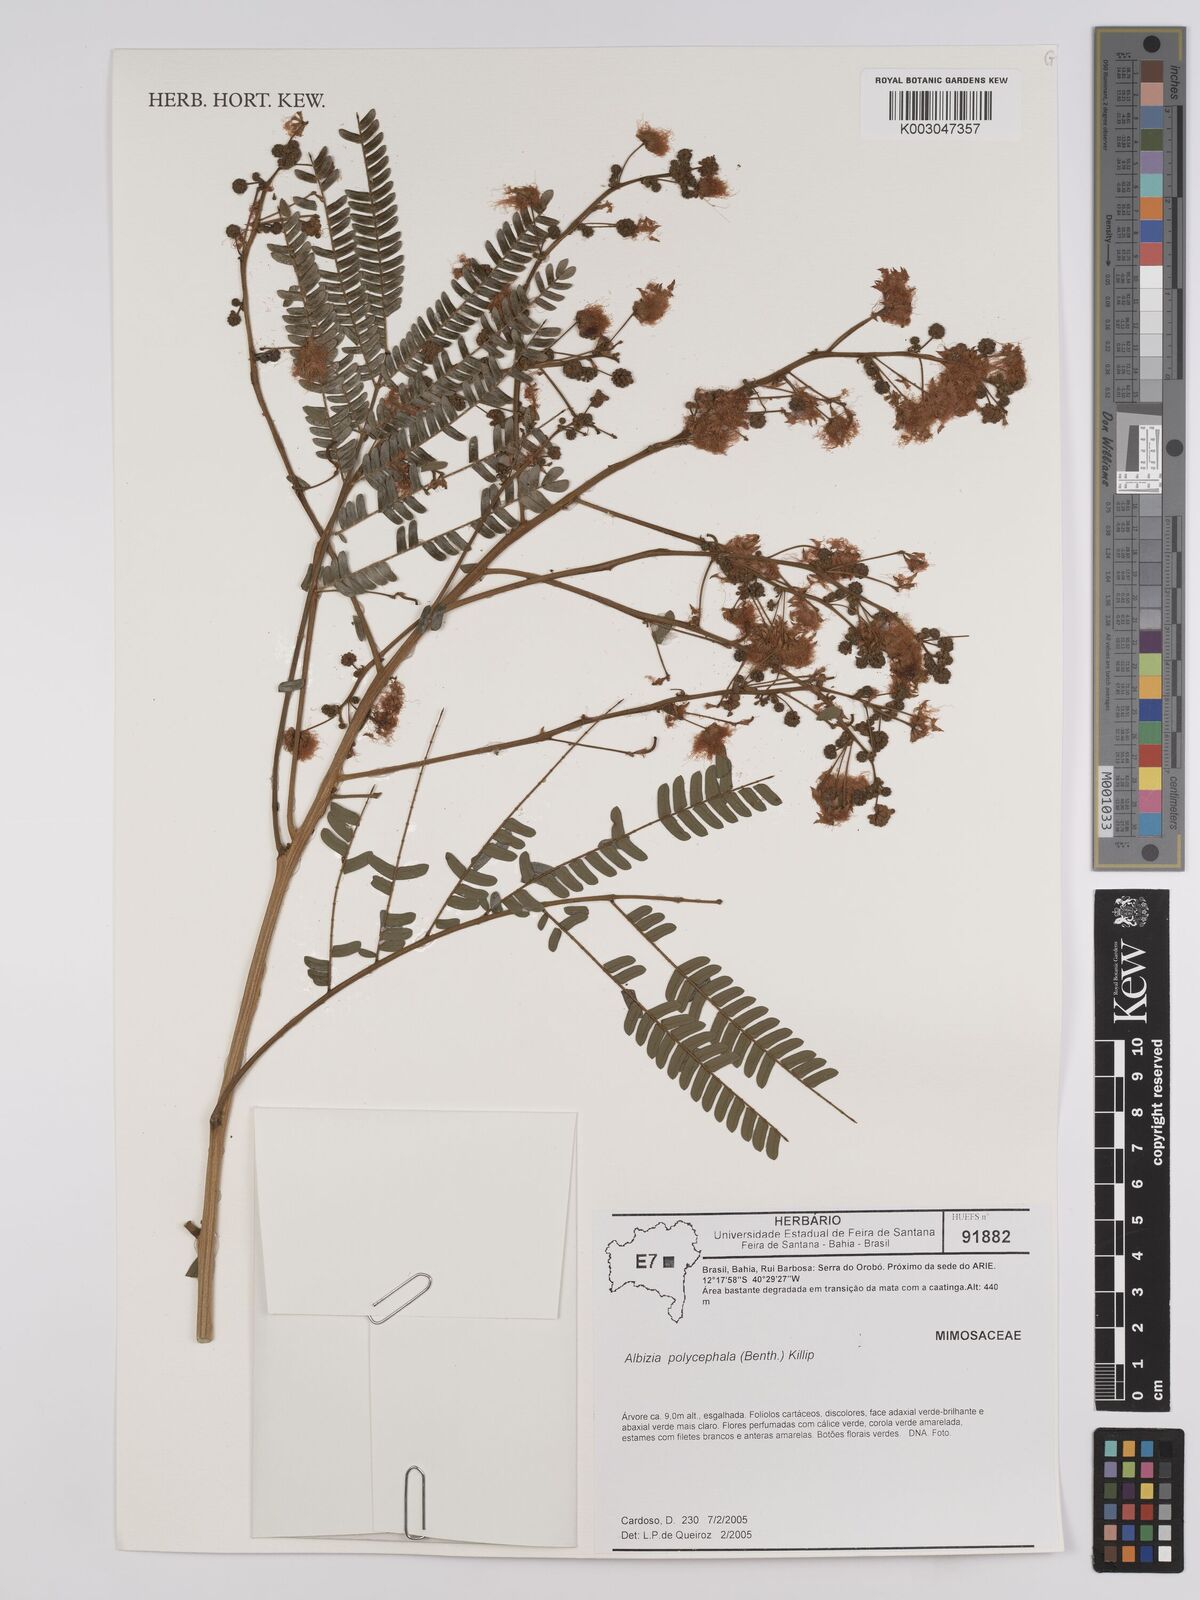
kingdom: Plantae
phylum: Tracheophyta
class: Magnoliopsida
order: Fabales
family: Fabaceae
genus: Albizia
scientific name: Albizia polycephala
